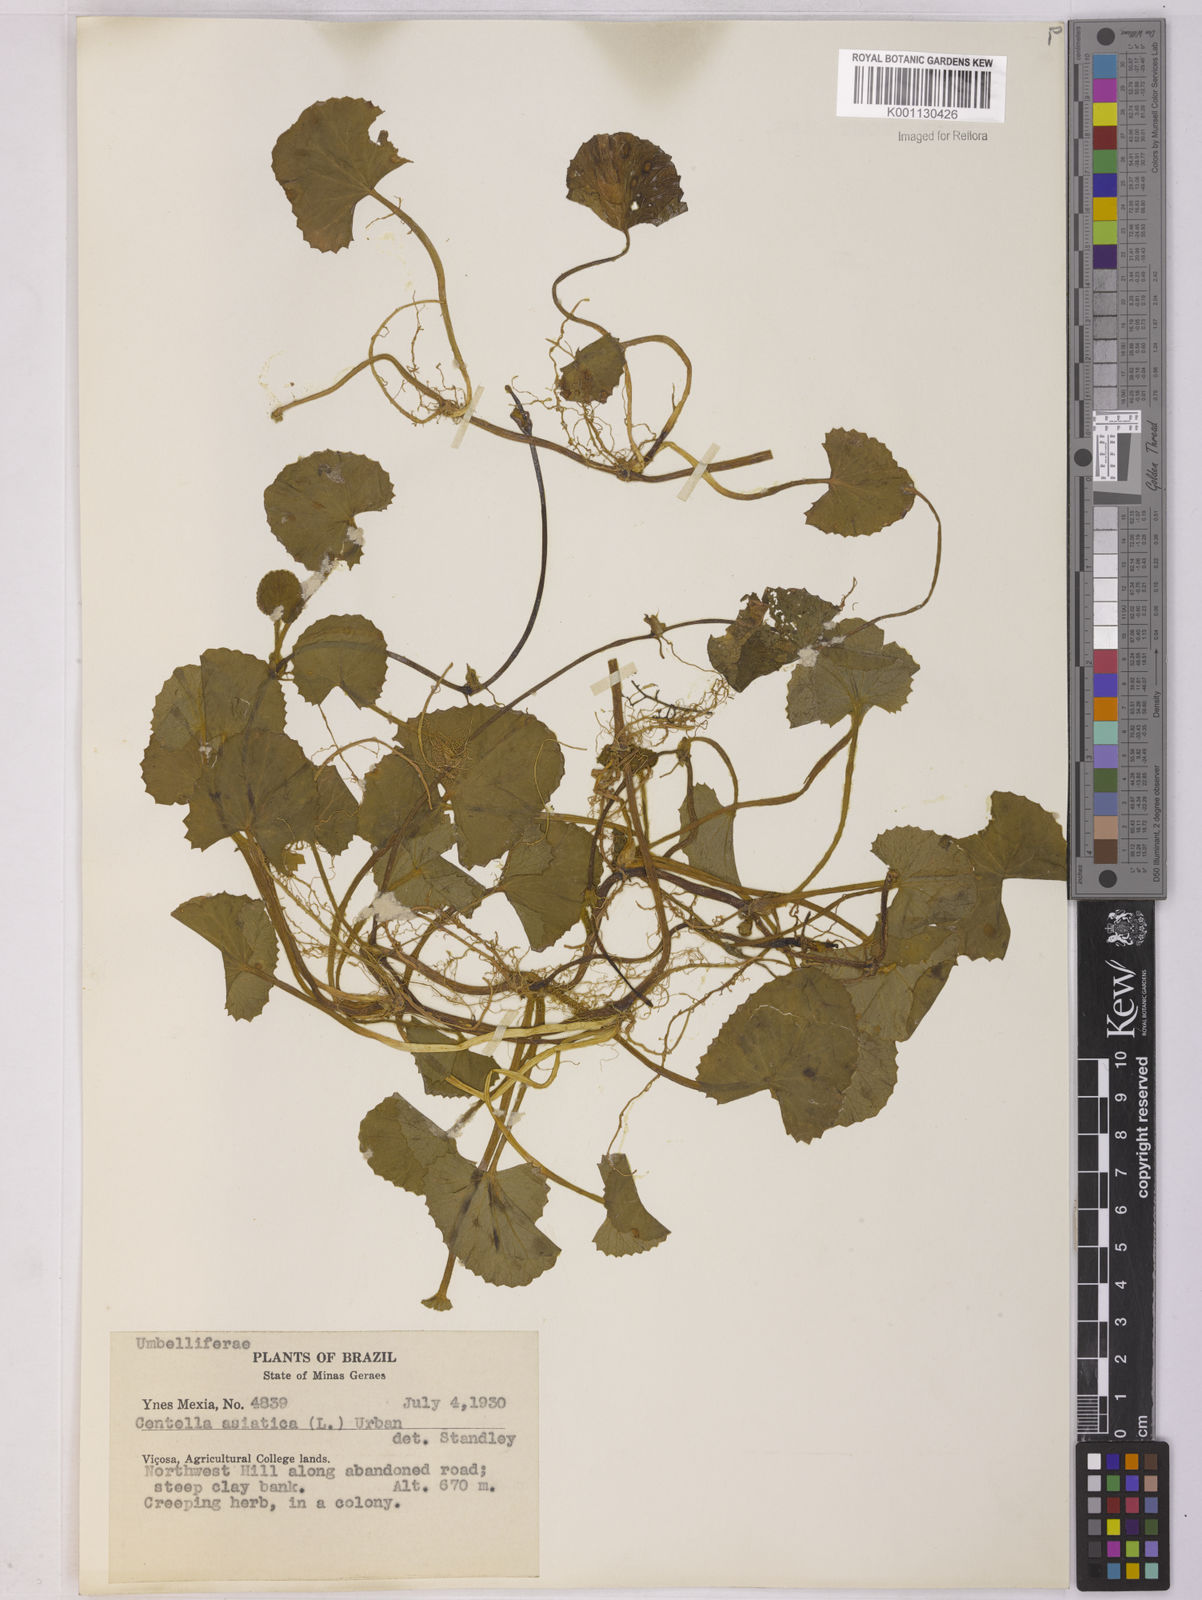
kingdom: Plantae
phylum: Tracheophyta
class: Magnoliopsida
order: Apiales
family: Apiaceae
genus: Centella
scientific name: Centella erecta
